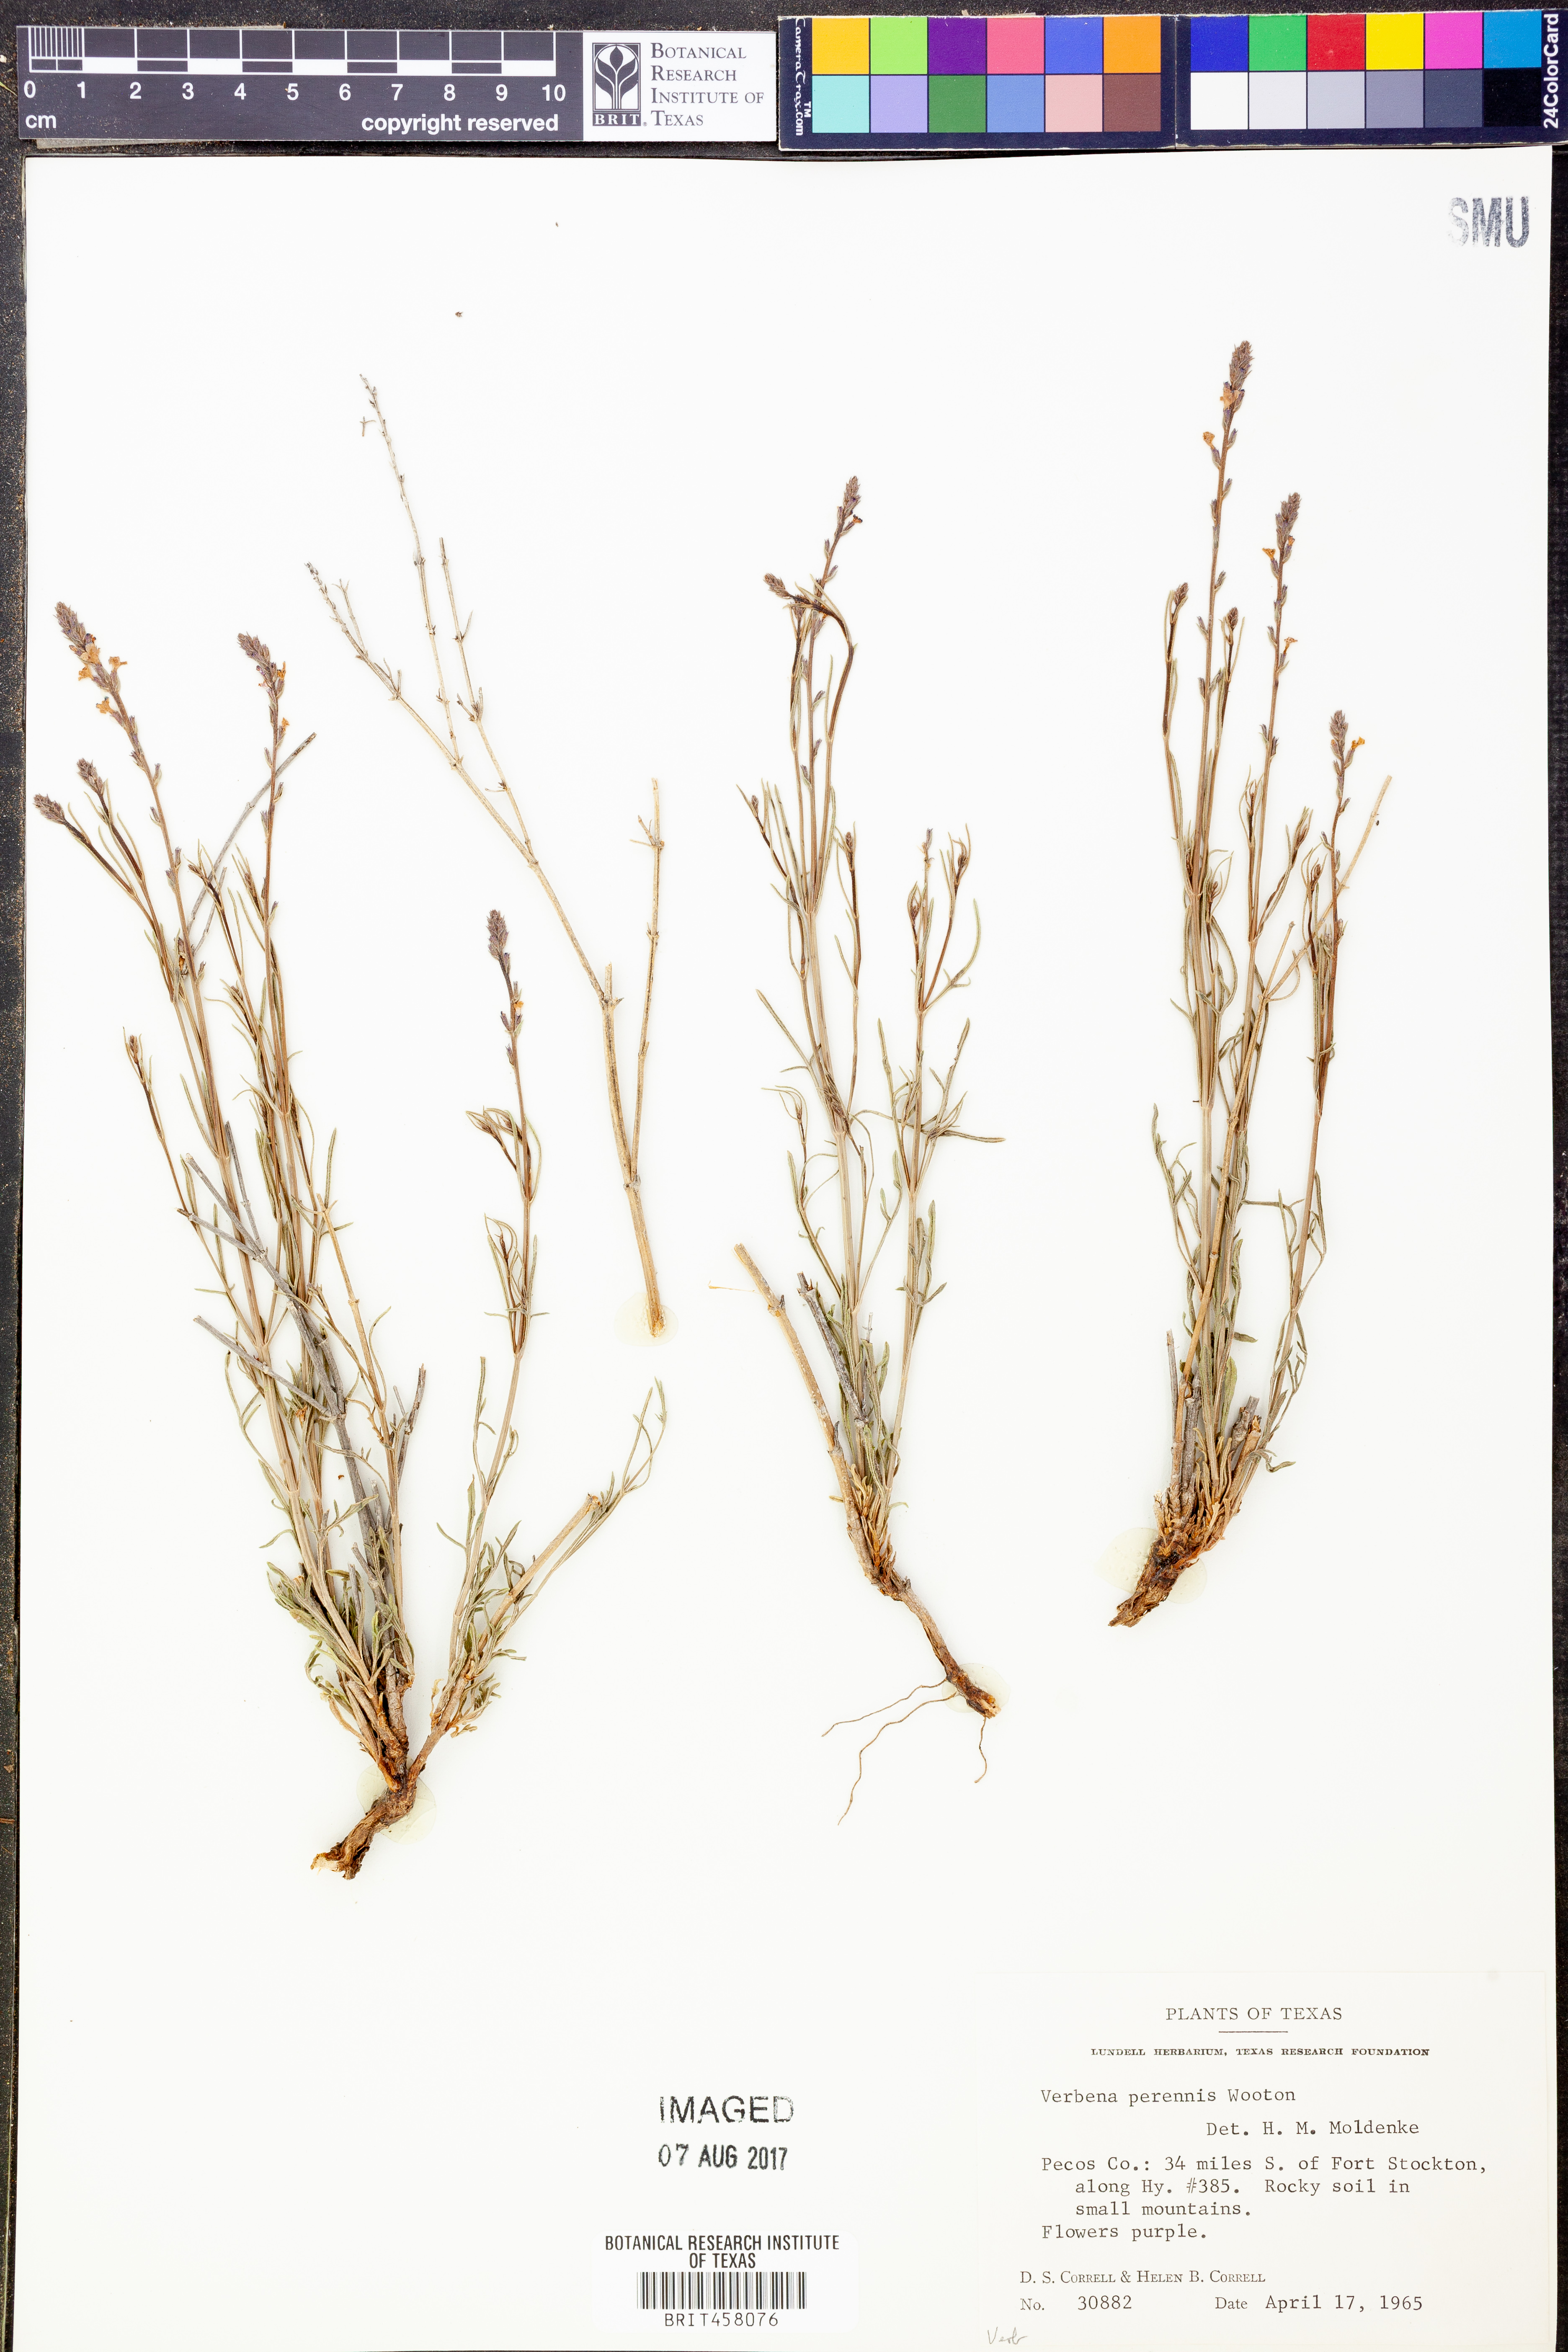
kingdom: Plantae
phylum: Tracheophyta
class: Magnoliopsida
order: Lamiales
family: Verbenaceae
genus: Verbena
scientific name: Verbena perennis
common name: Pin-leaf vervain
